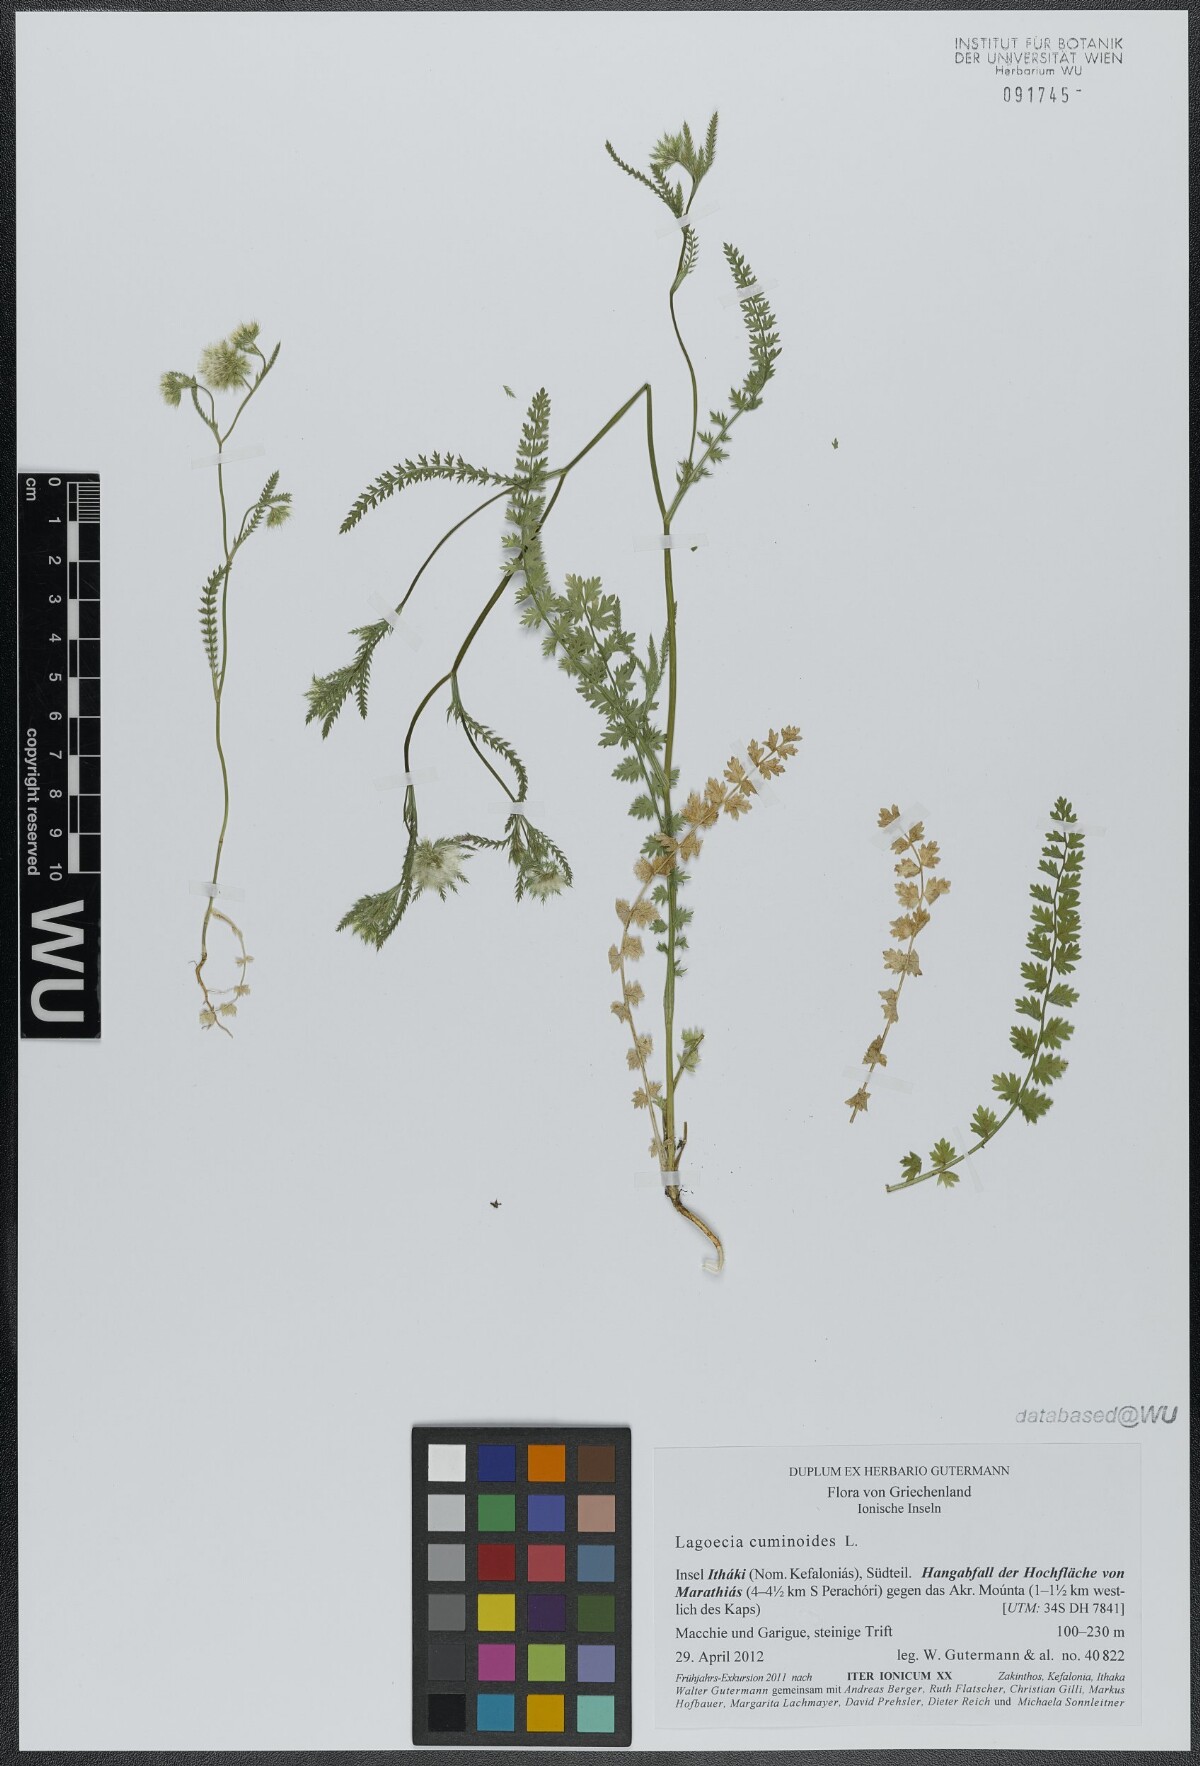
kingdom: Plantae
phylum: Tracheophyta
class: Magnoliopsida
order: Apiales
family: Apiaceae
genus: Lagoecia
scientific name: Lagoecia cuminoides
